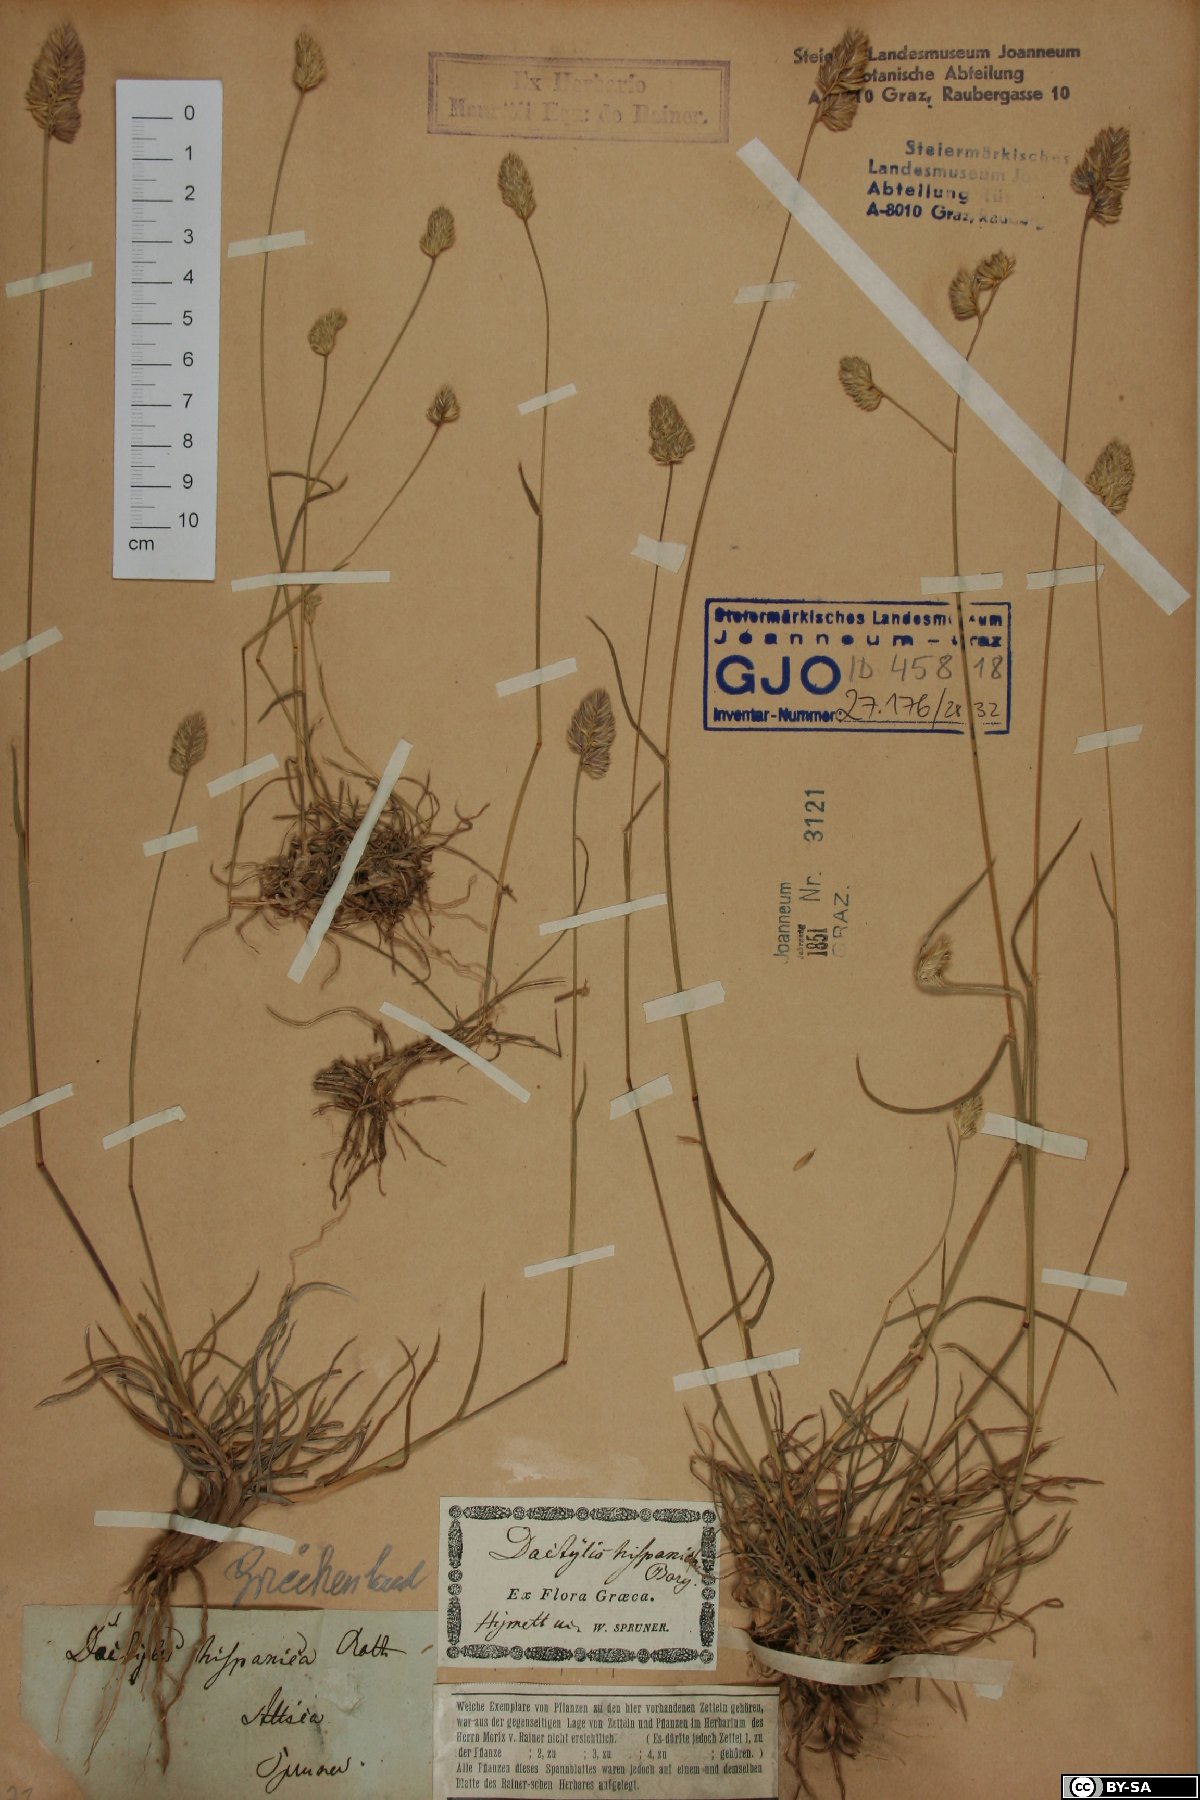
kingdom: Plantae
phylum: Tracheophyta
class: Liliopsida
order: Poales
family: Poaceae
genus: Dactylis
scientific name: Dactylis glomerata
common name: Orchardgrass
